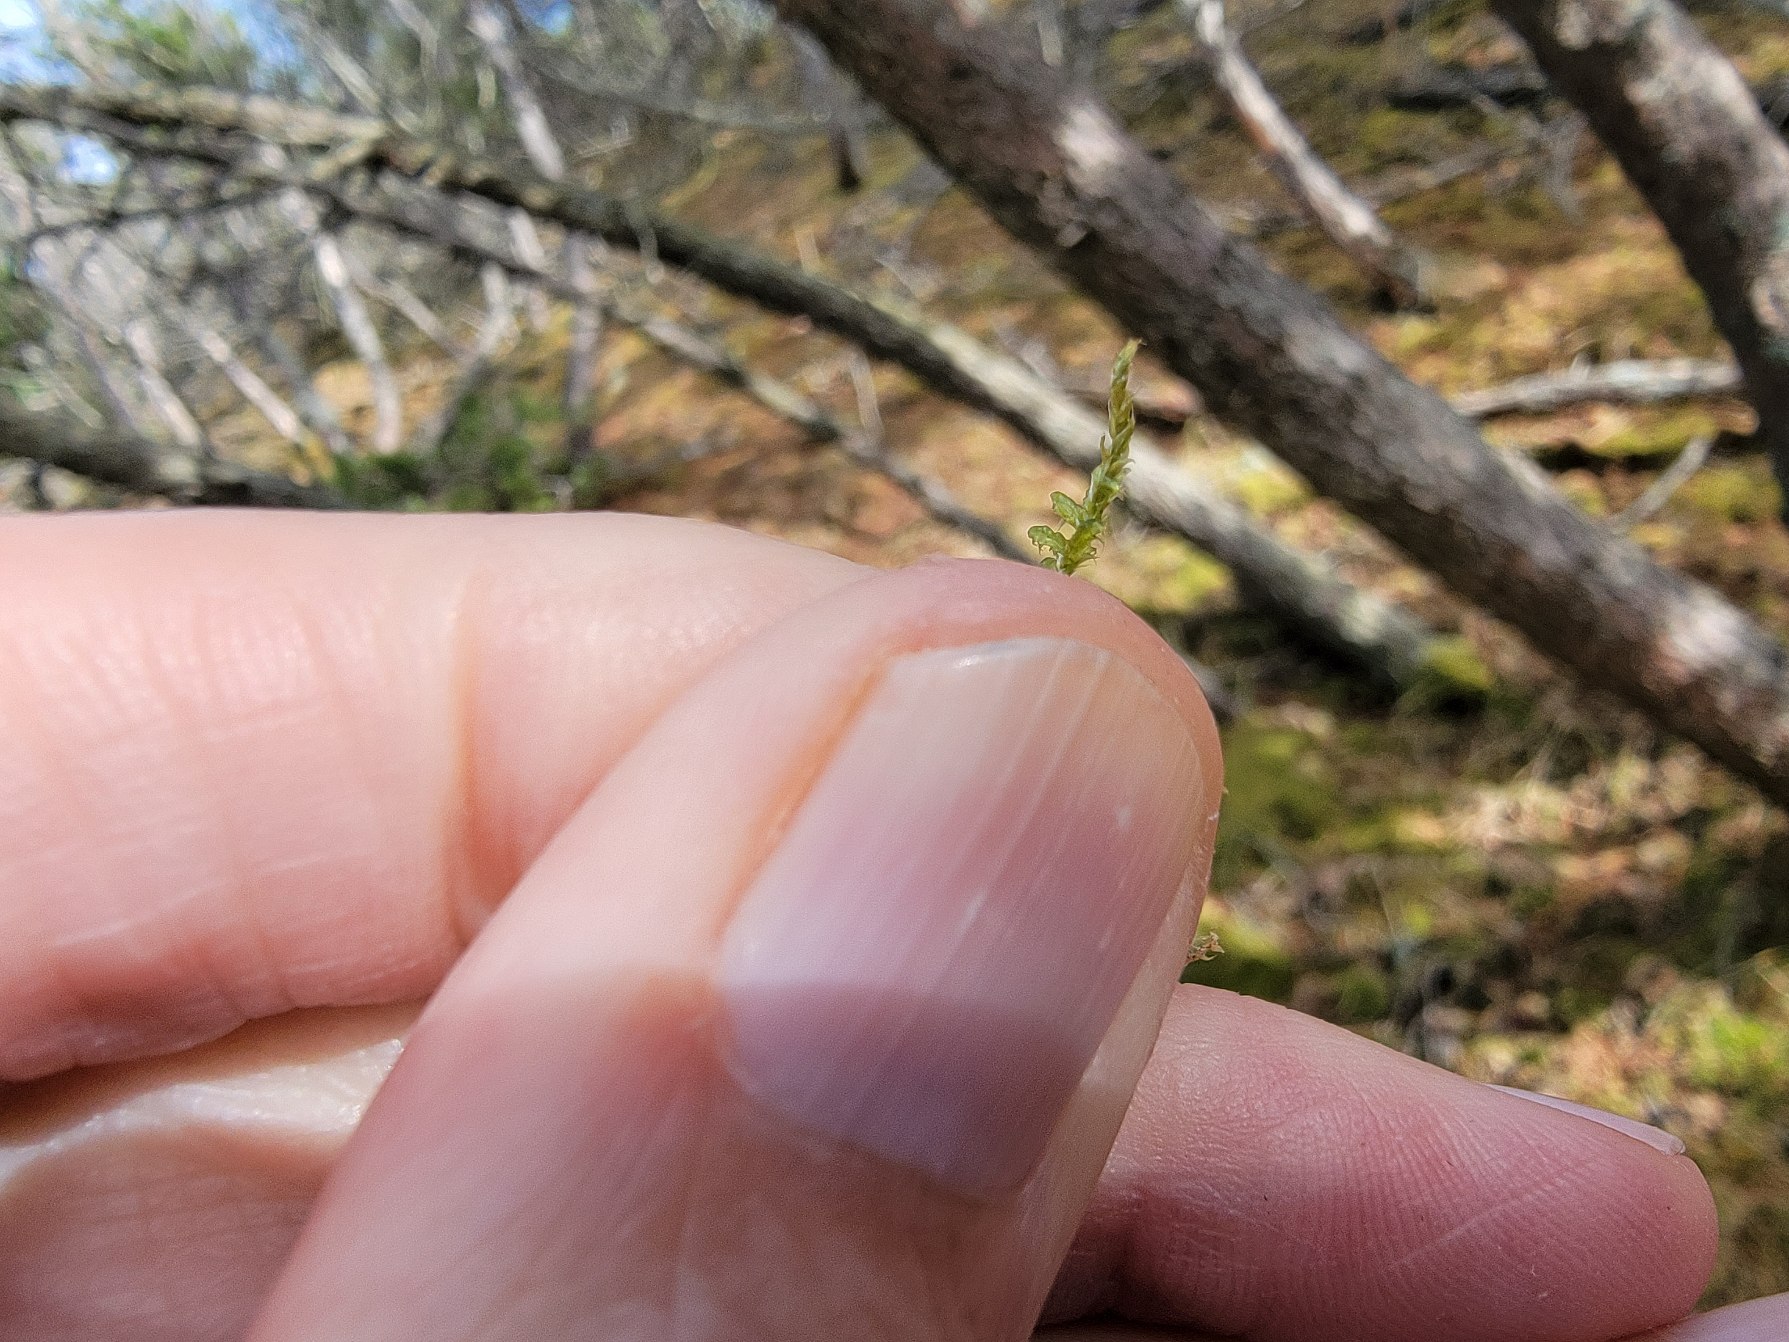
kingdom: Plantae
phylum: Bryophyta
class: Bryopsida
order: Hypnales
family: Hypnaceae
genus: Hypnum
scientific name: Hypnum jutlandicum
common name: Hede-cypresmos
